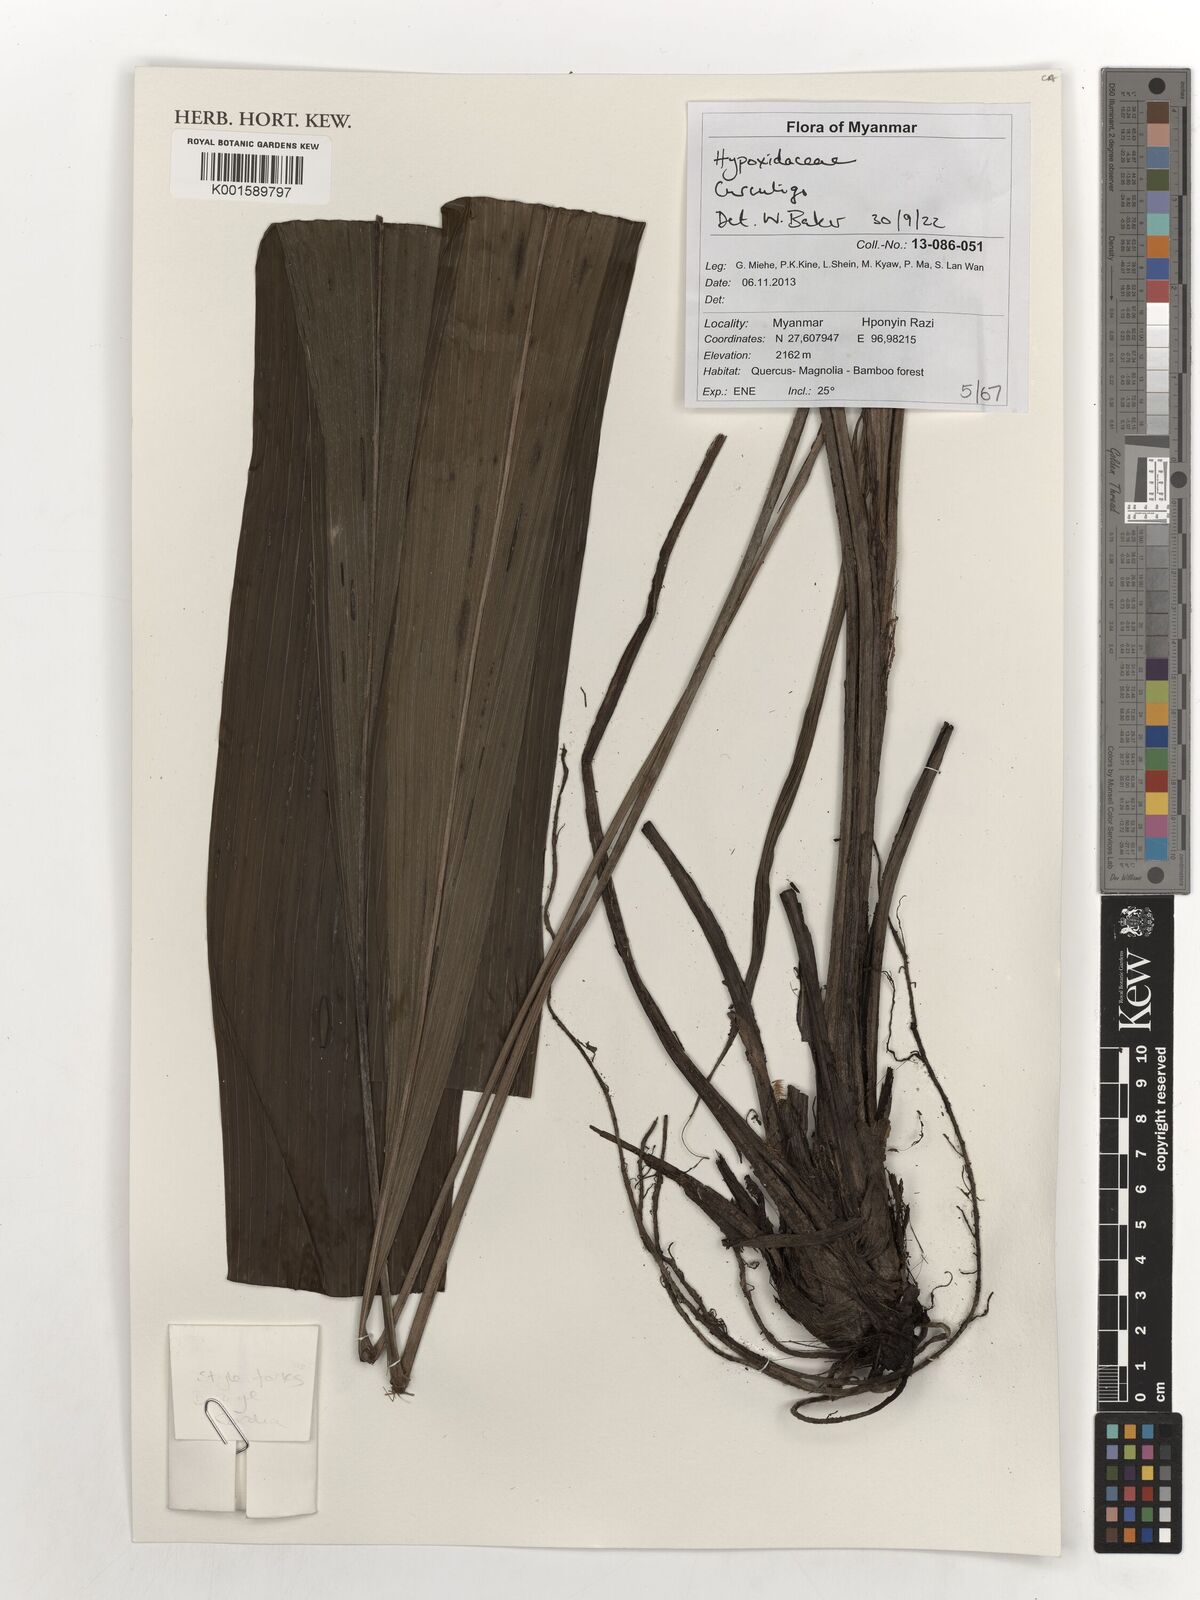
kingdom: Plantae
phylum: Tracheophyta
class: Liliopsida
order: Asparagales
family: Hypoxidaceae
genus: Curculigo
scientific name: Curculigo
